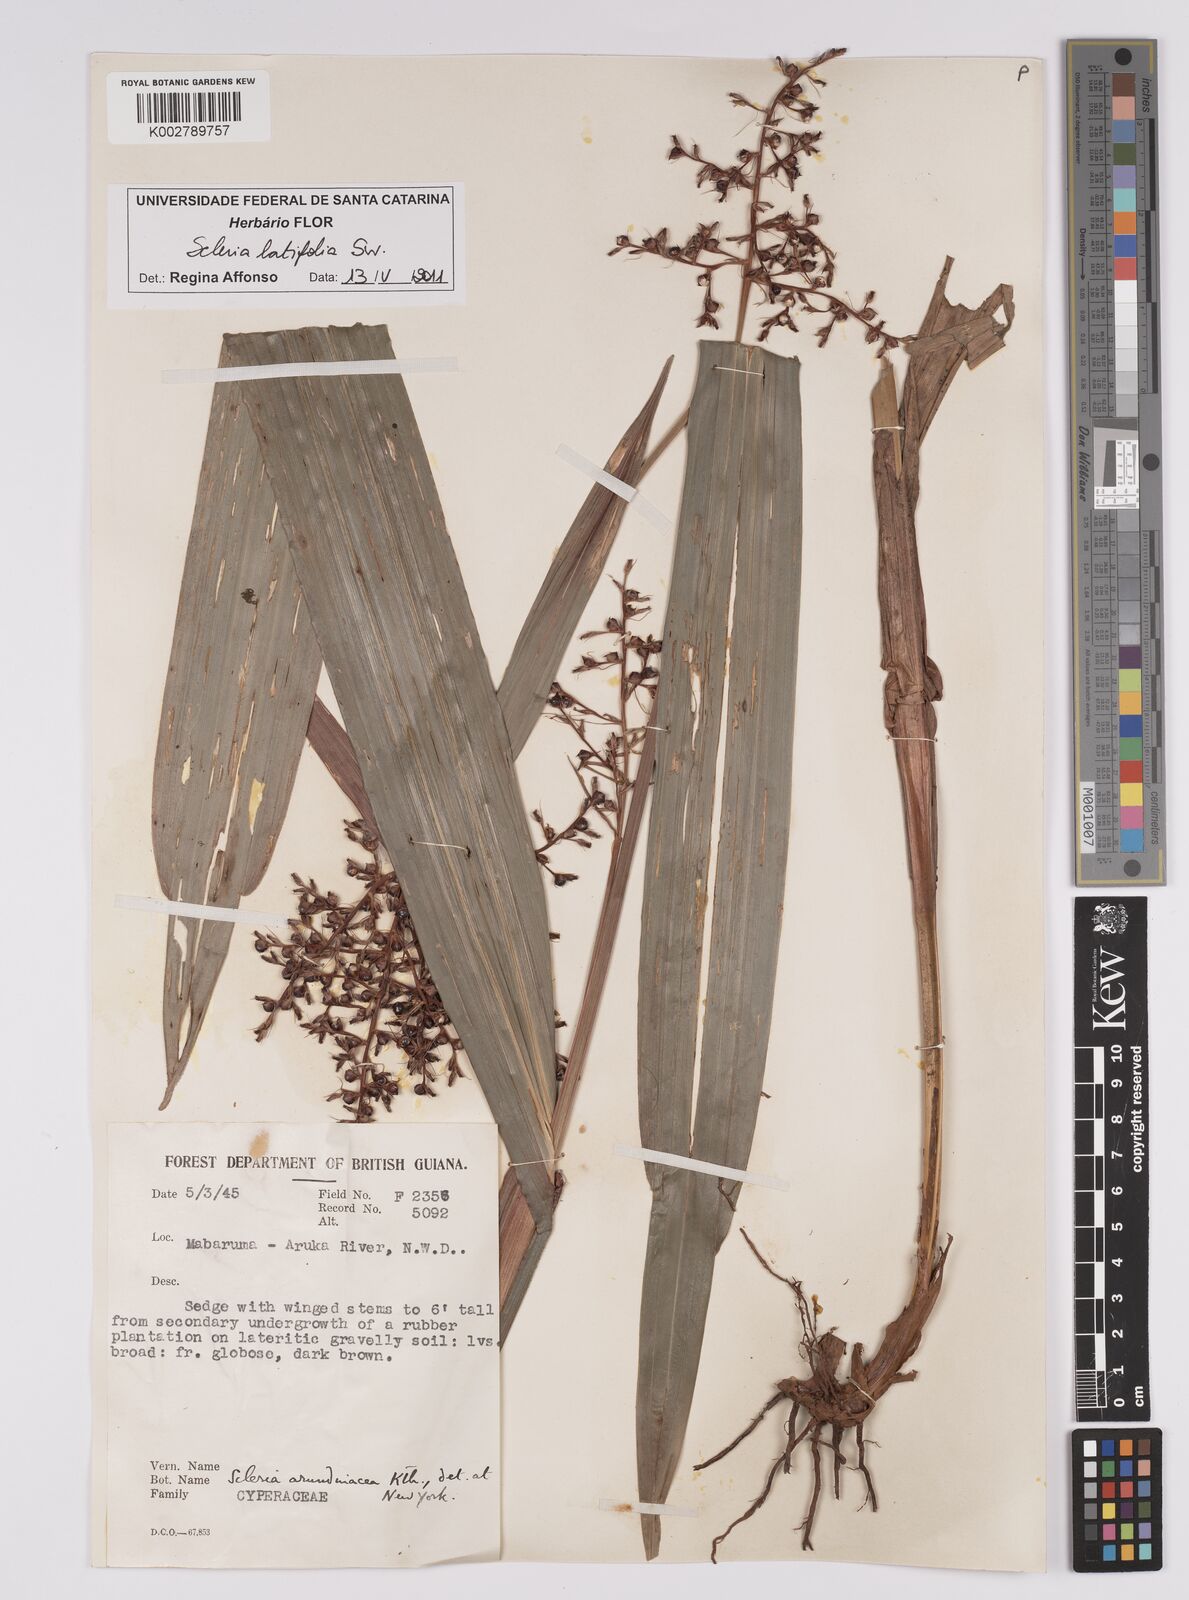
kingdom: Plantae
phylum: Tracheophyta
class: Liliopsida
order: Poales
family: Cyperaceae
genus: Scleria
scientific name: Scleria latifolia
